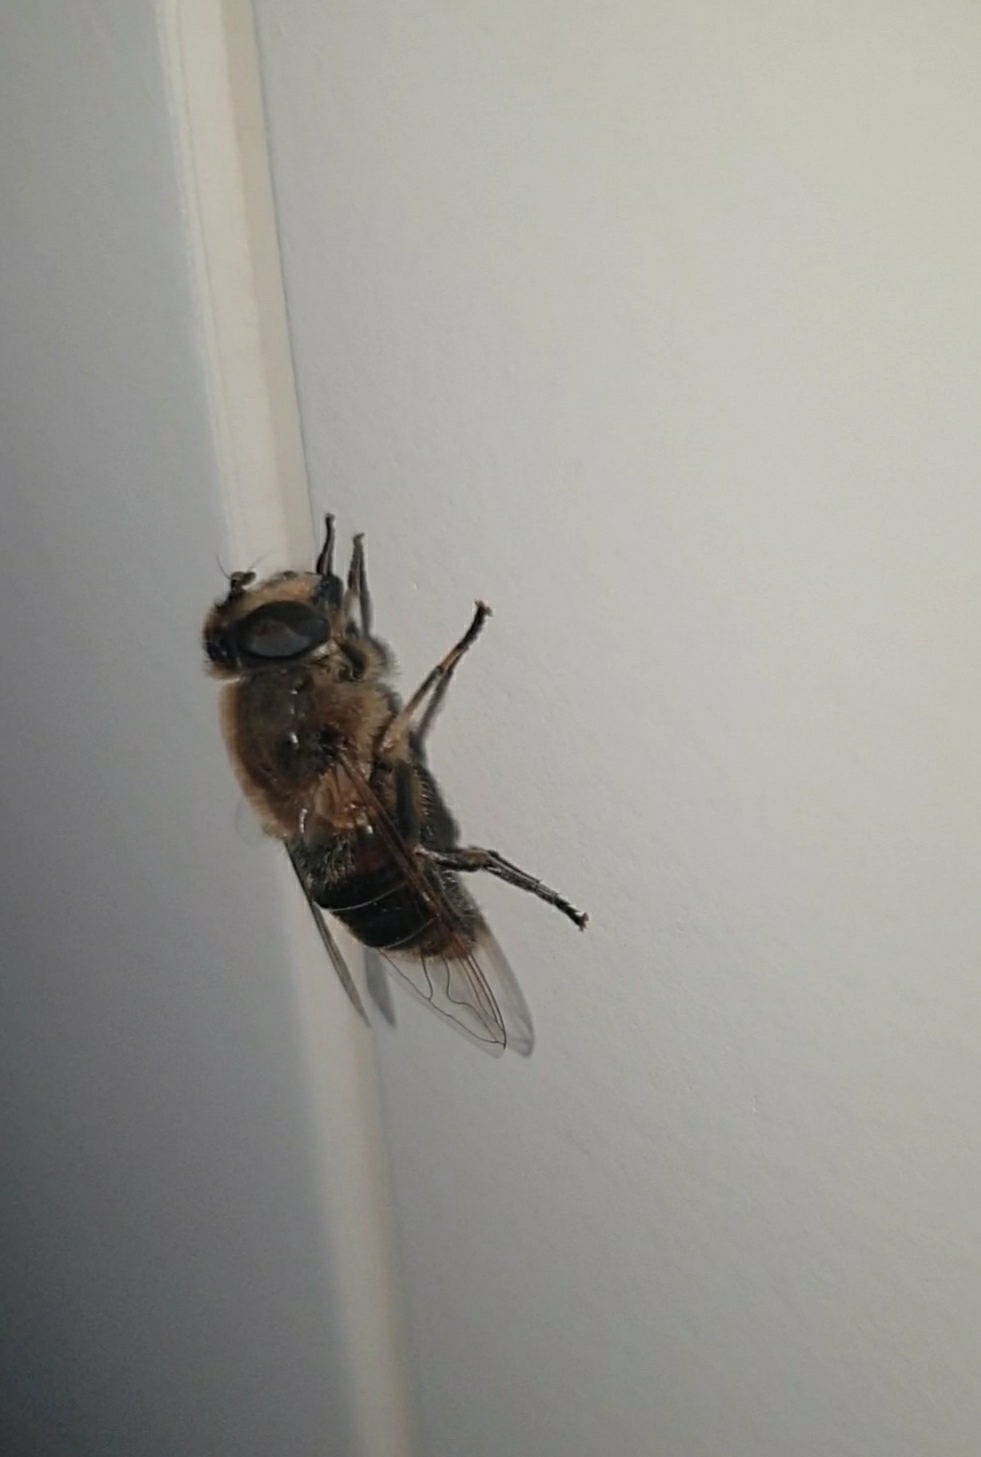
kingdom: Animalia
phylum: Arthropoda
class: Insecta
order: Diptera
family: Syrphidae
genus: Eristalis
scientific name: Eristalis tenax
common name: Droneflue
